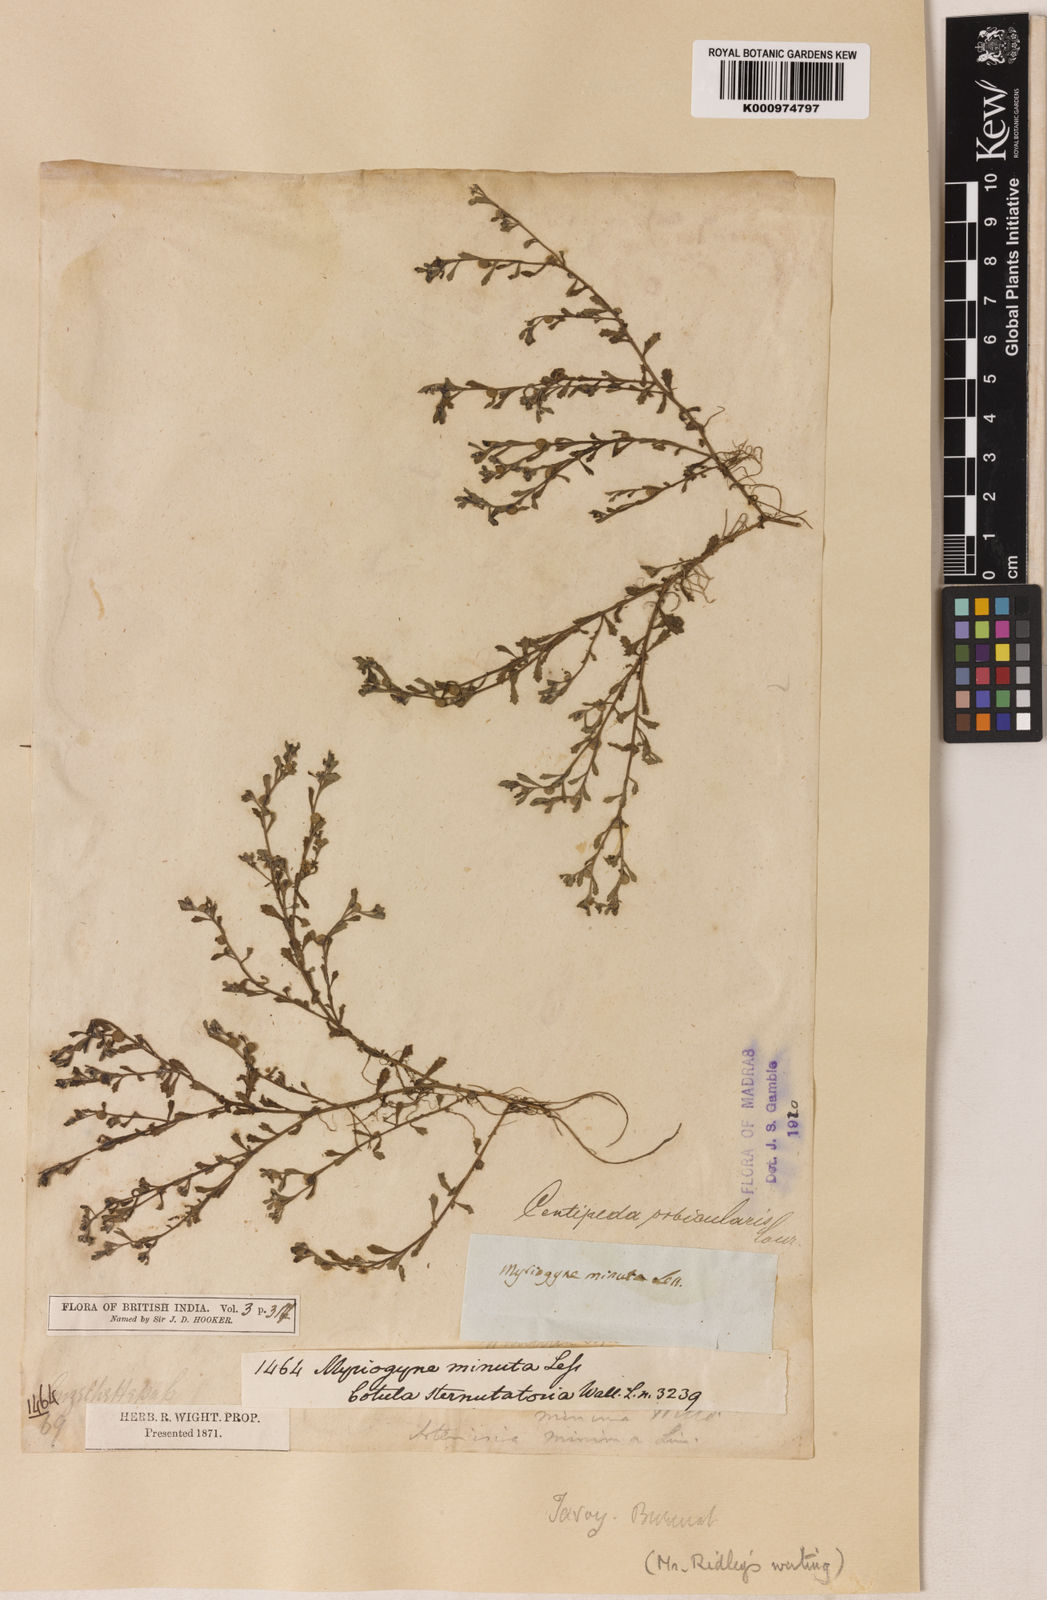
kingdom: Plantae
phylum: Tracheophyta
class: Magnoliopsida
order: Asterales
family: Asteraceae
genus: Centipeda
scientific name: Centipeda minima
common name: Spreading sneezeweed
